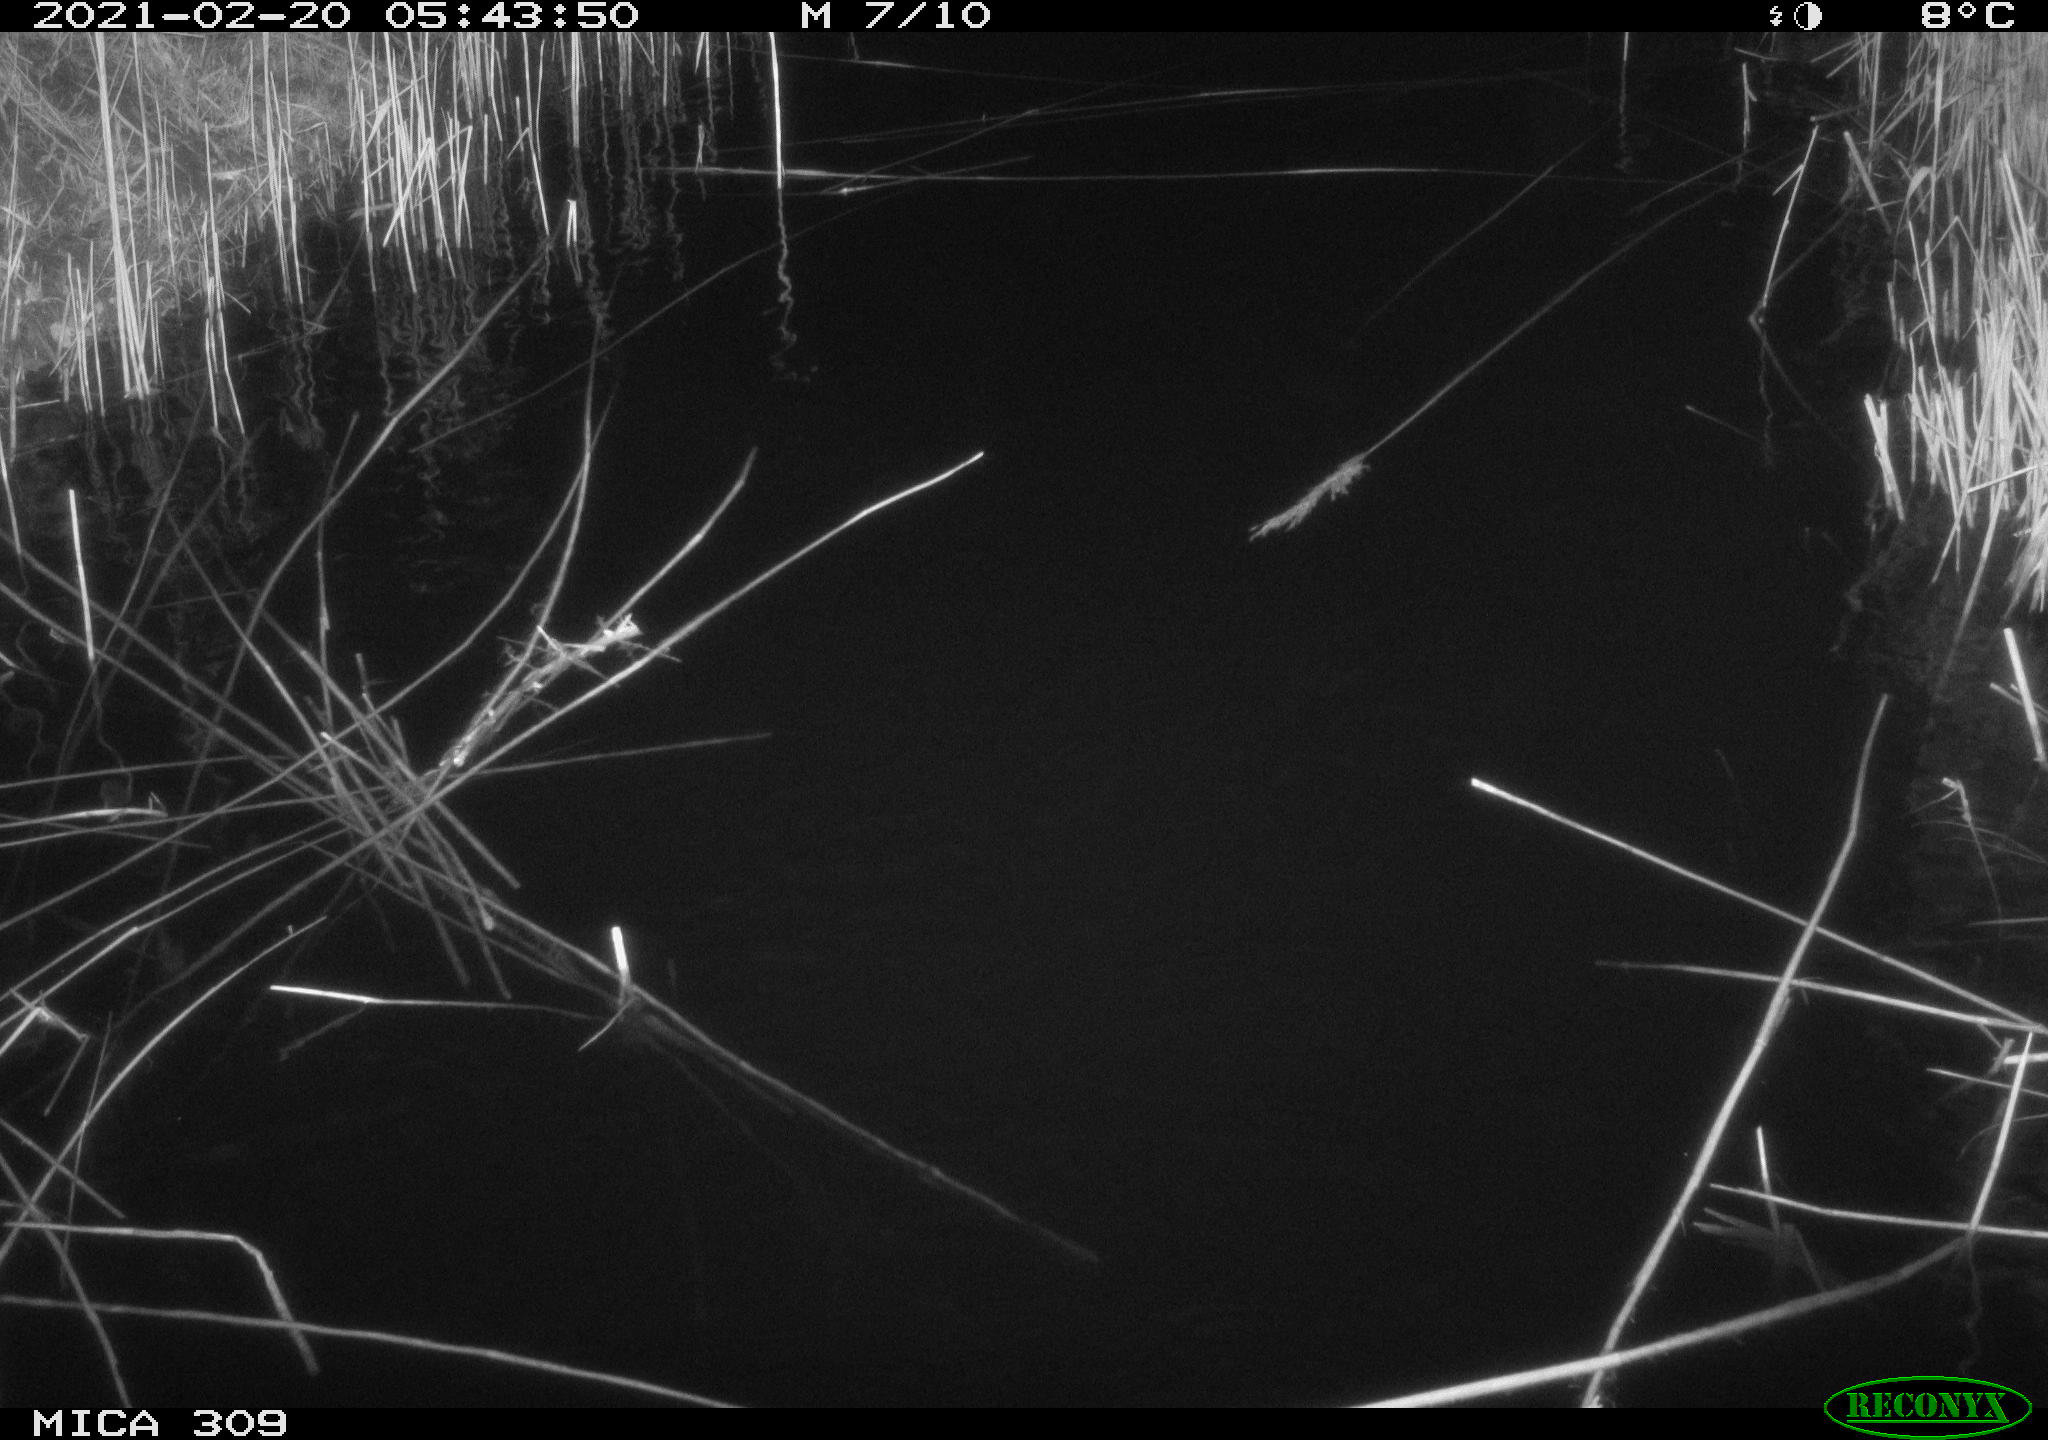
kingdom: Animalia
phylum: Chordata
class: Mammalia
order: Rodentia
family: Cricetidae
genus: Ondatra
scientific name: Ondatra zibethicus
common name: Muskrat
